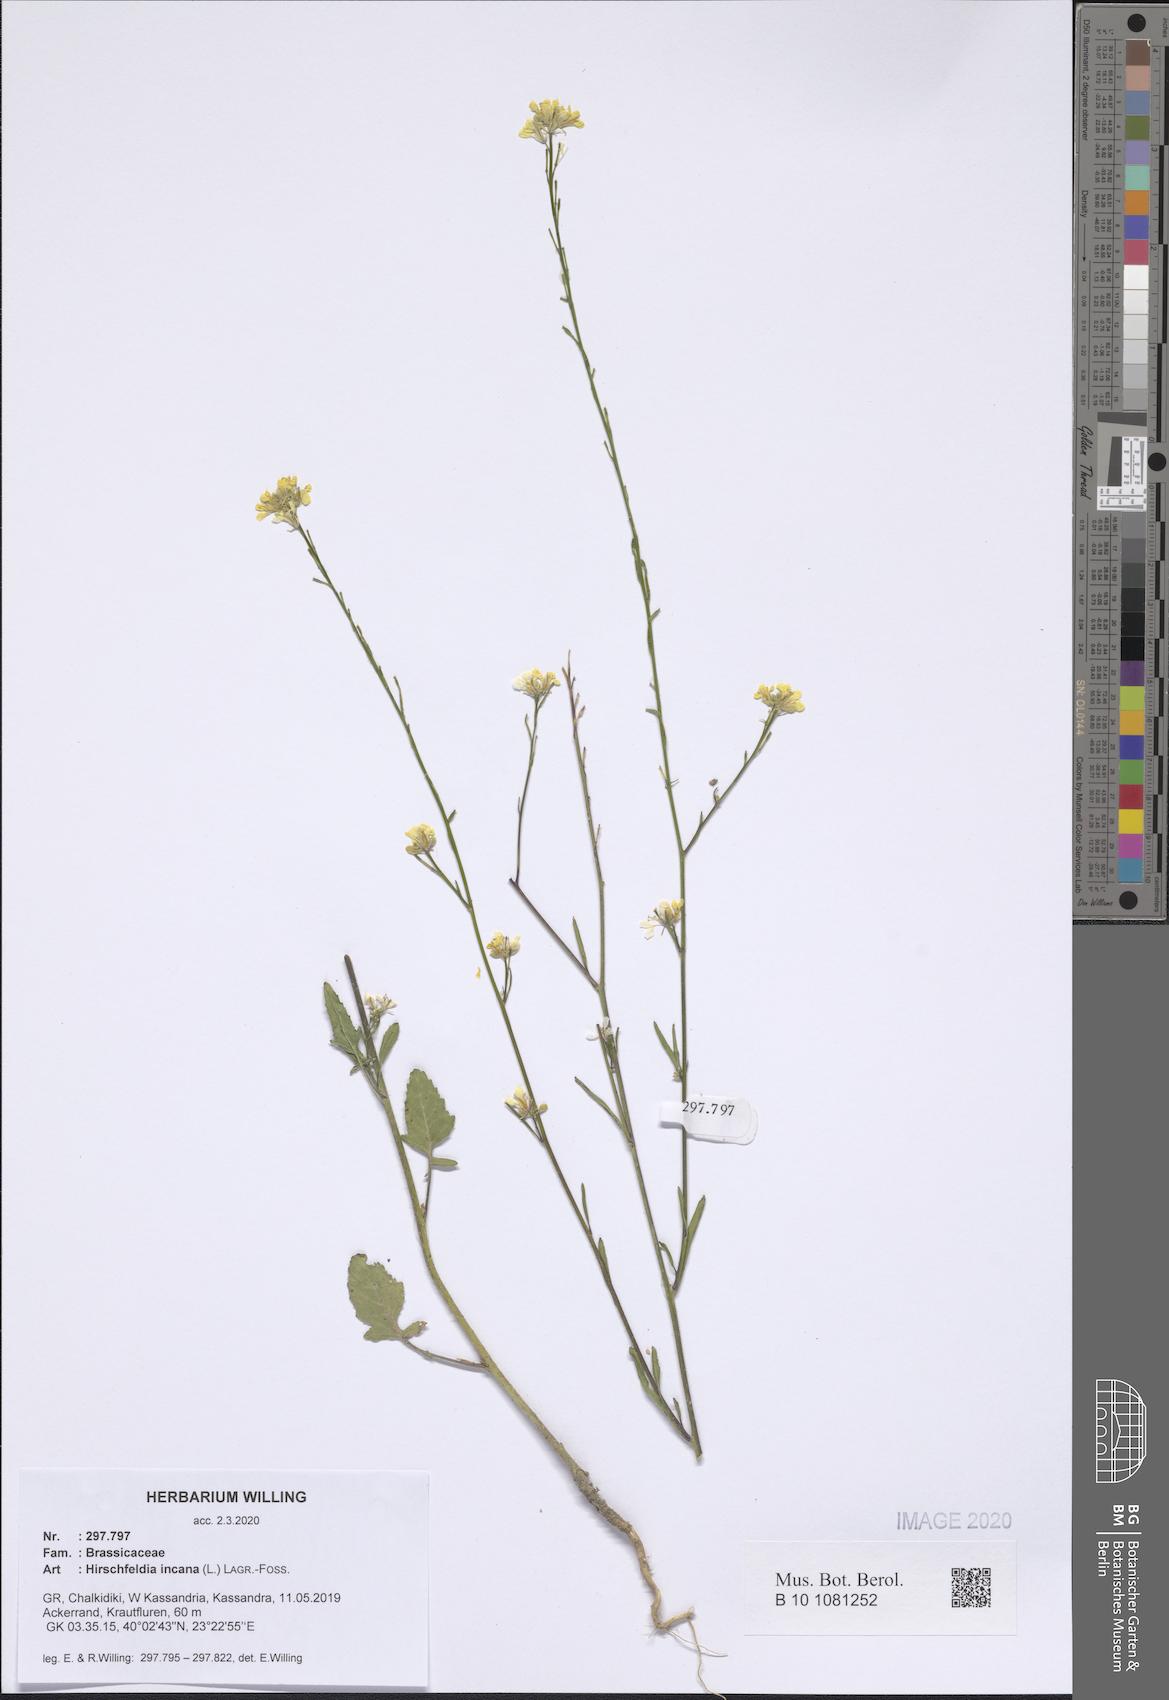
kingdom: Plantae
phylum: Tracheophyta
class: Magnoliopsida
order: Brassicales
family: Brassicaceae
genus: Hirschfeldia
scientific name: Hirschfeldia incana
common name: Hoary mustard
